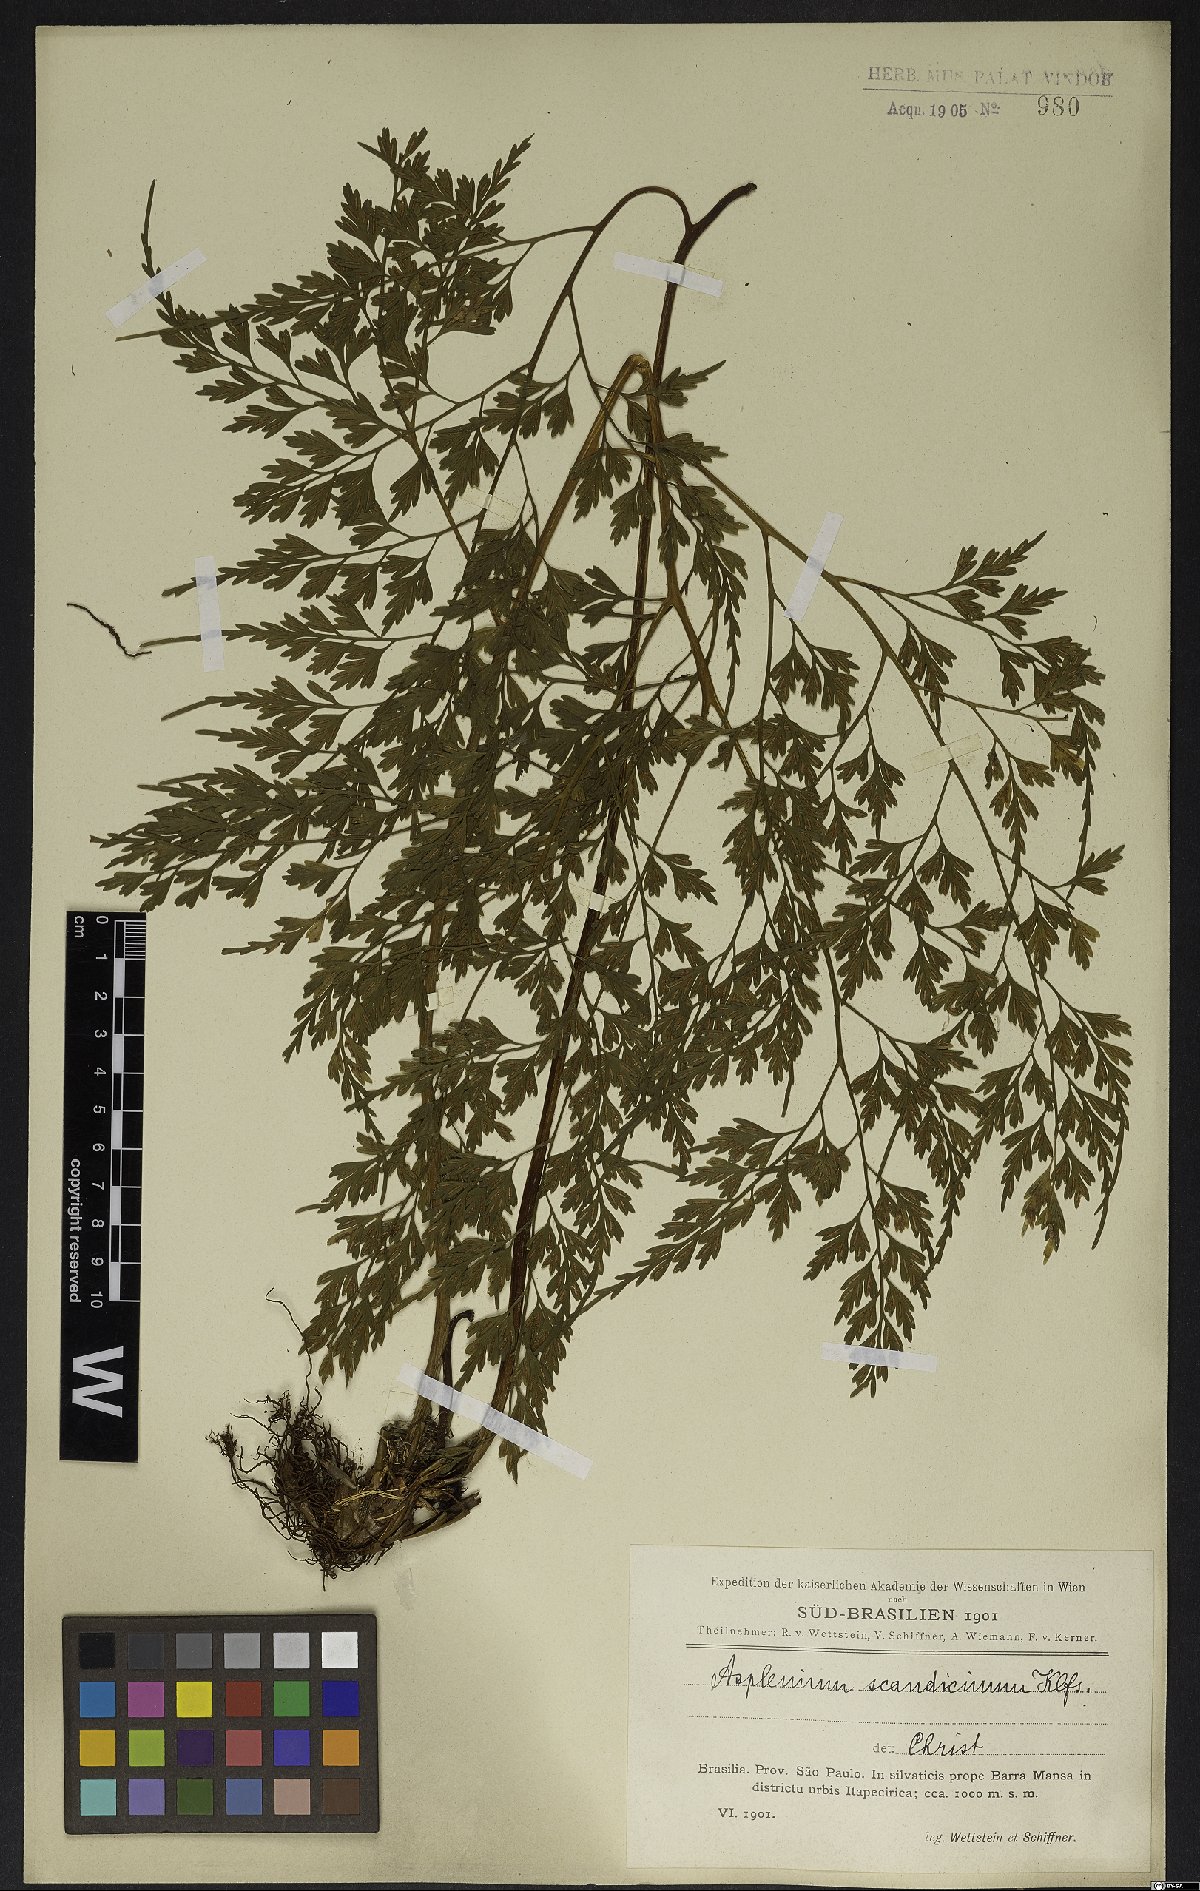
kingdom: Plantae
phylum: Tracheophyta
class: Polypodiopsida
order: Polypodiales
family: Aspleniaceae
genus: Asplenium
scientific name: Asplenium scandicinum
